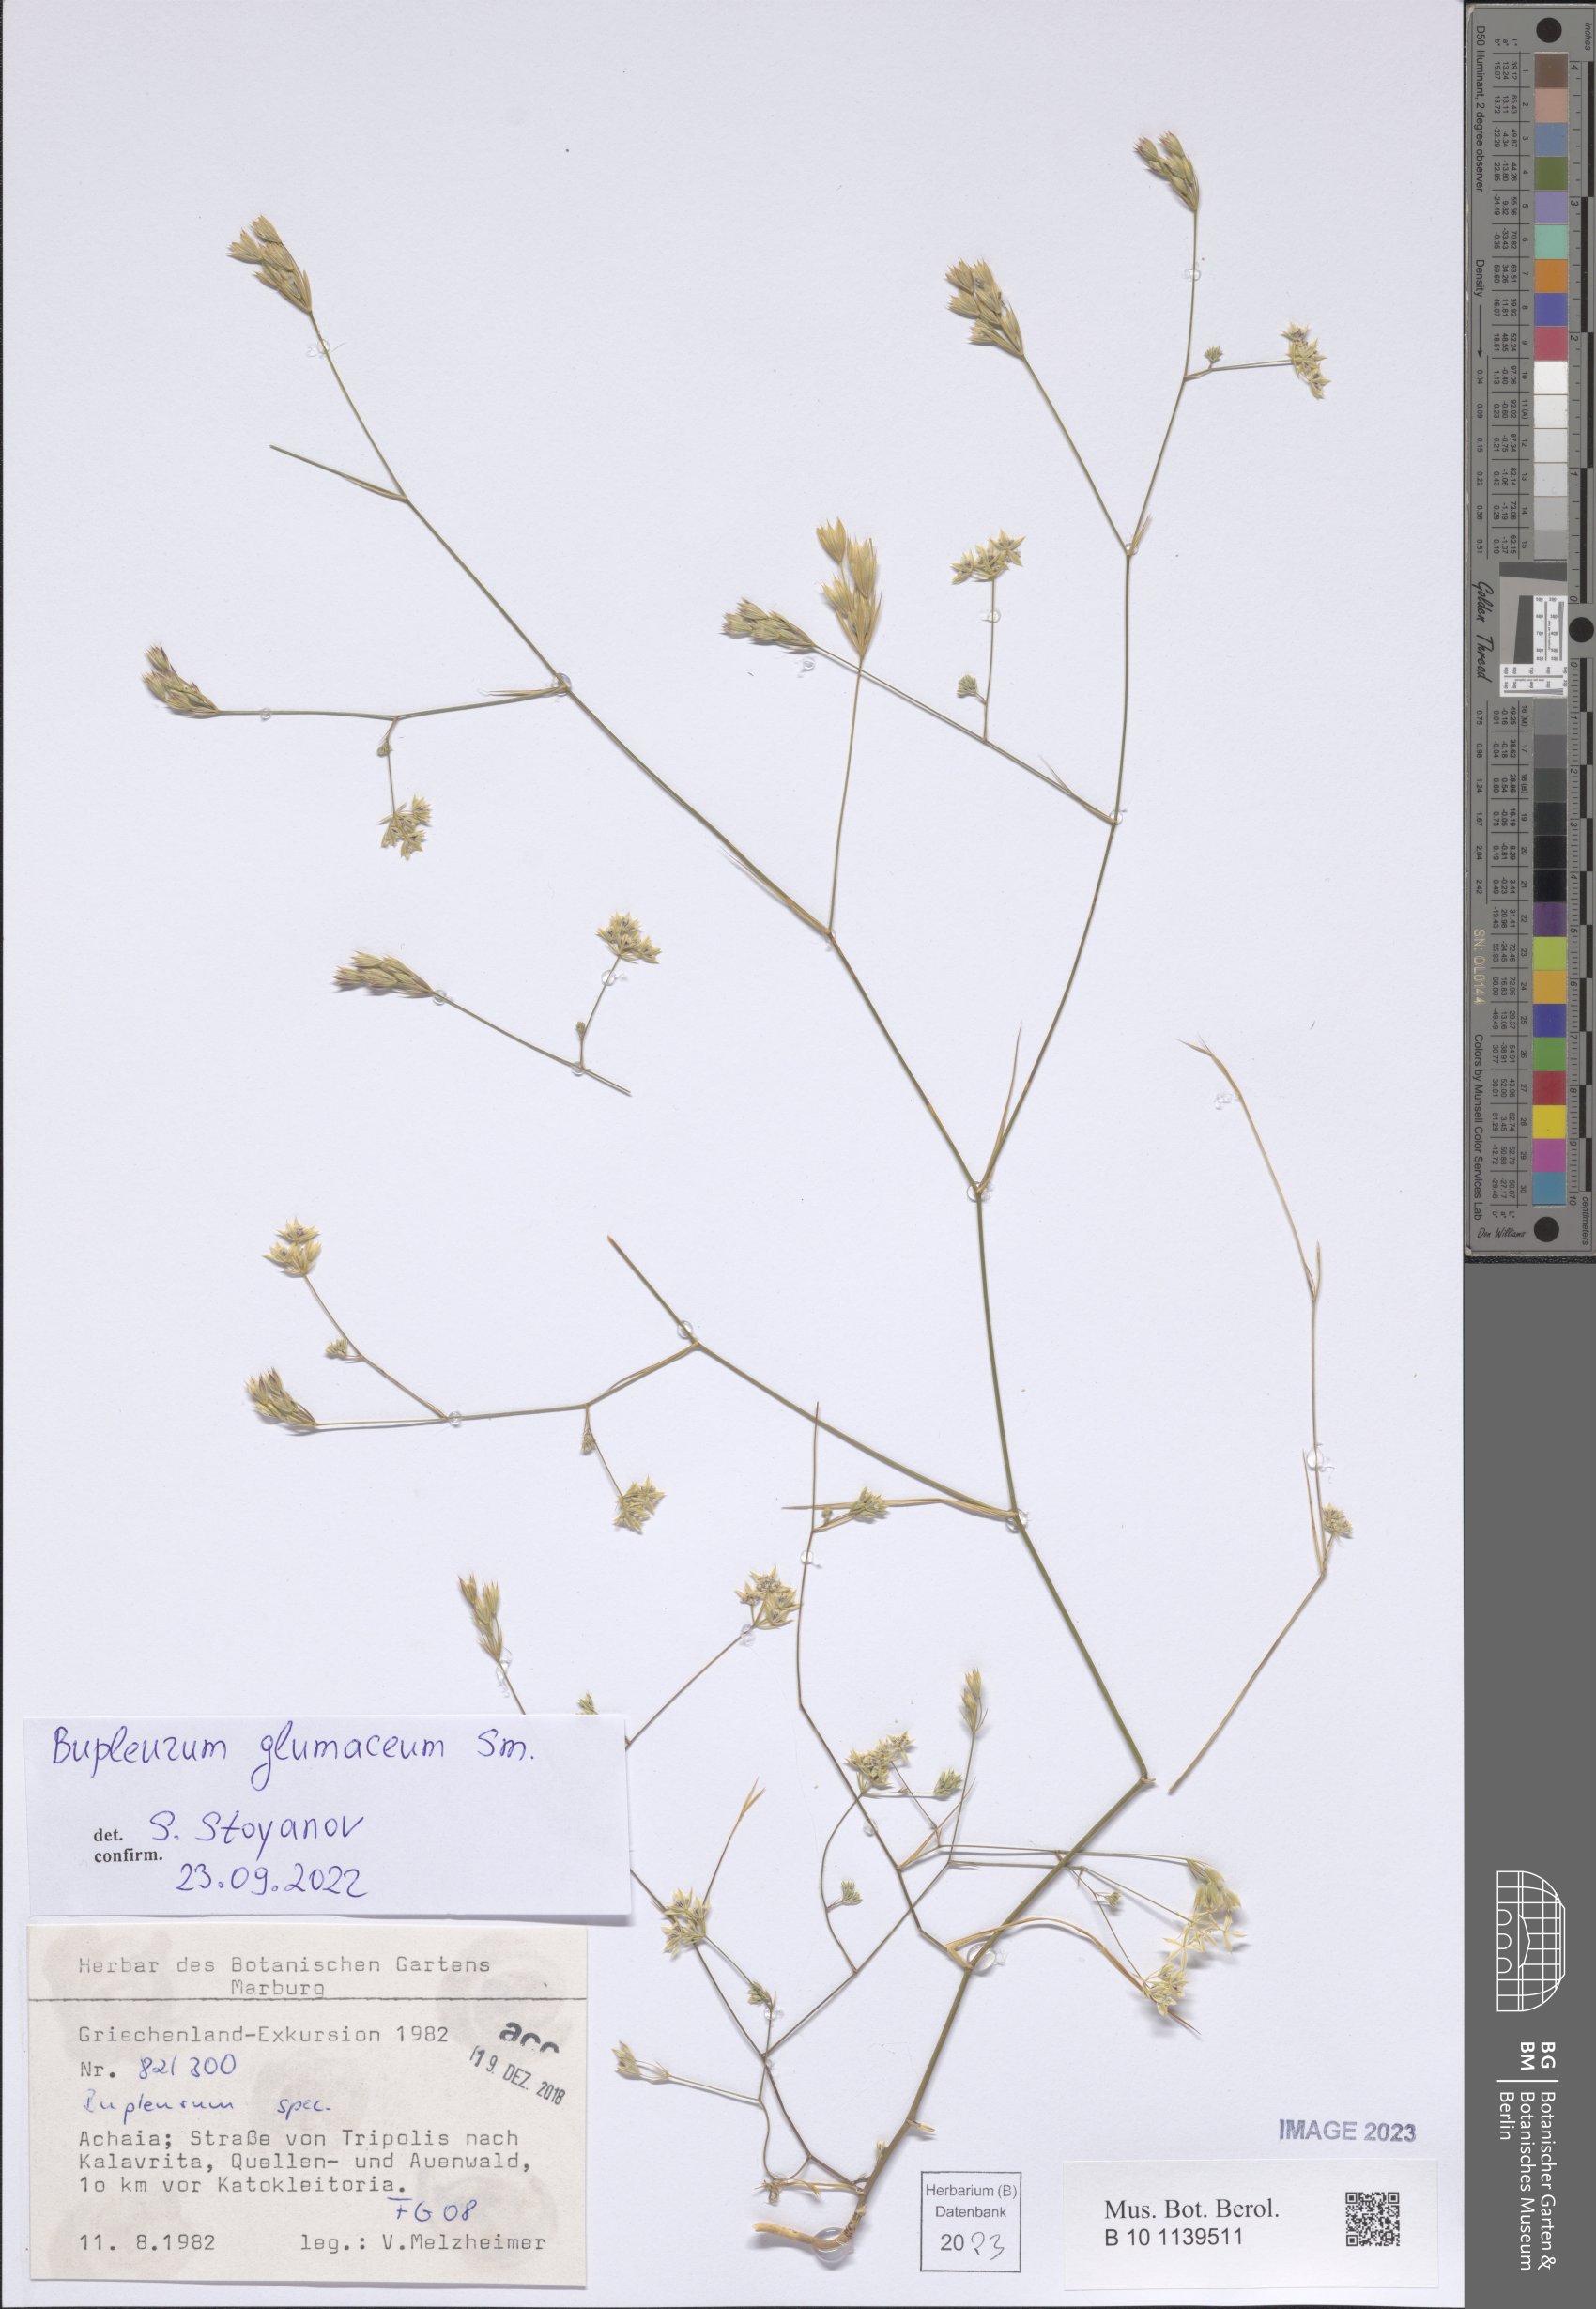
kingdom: Plantae
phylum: Tracheophyta
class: Magnoliopsida
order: Apiales
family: Apiaceae
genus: Bupleurum
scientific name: Bupleurum glumaceum
